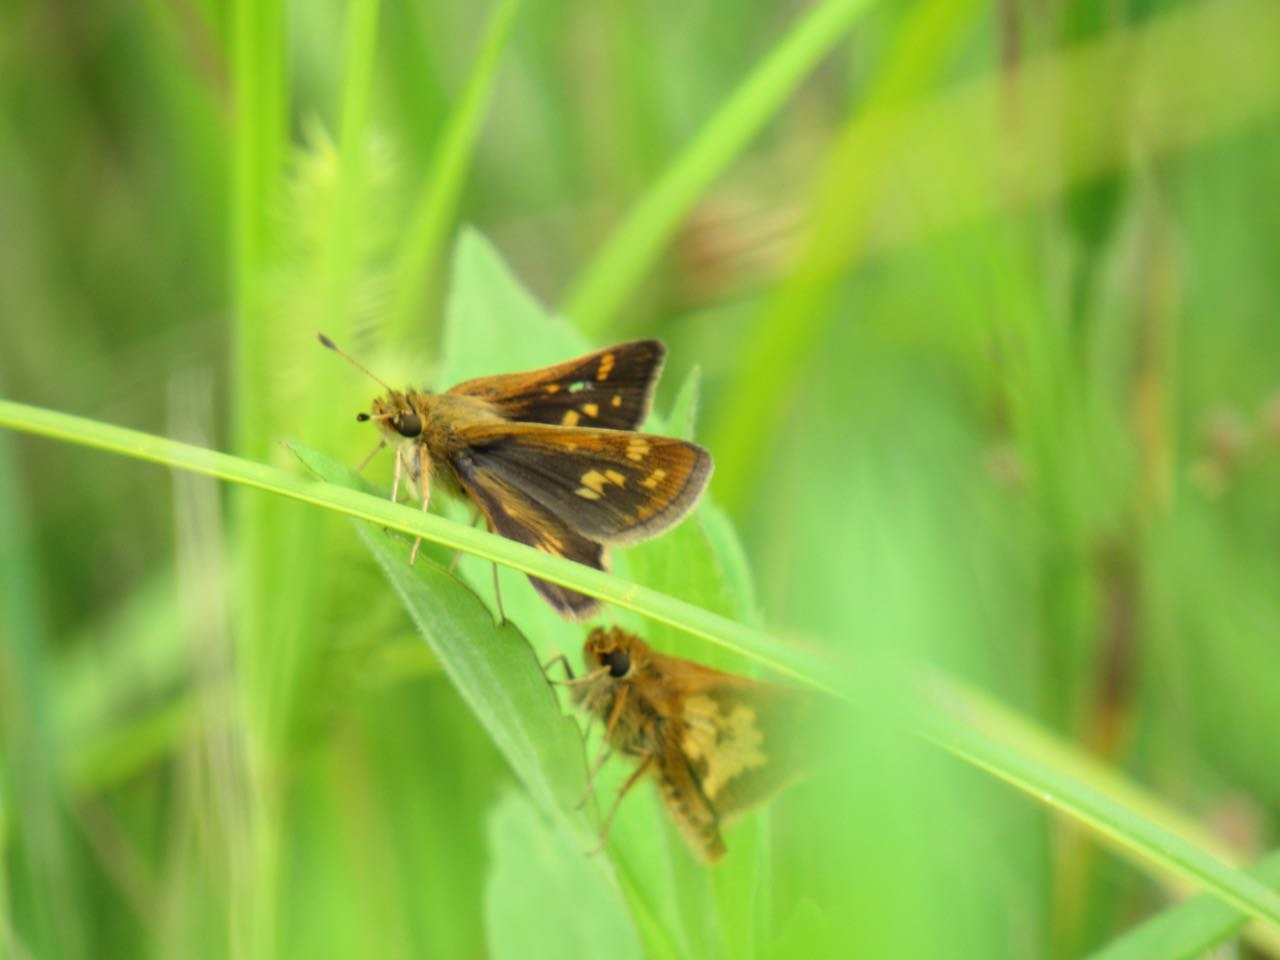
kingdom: Animalia
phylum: Arthropoda
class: Insecta
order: Lepidoptera
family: Hesperiidae
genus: Polites
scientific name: Polites coras
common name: Peck's Skipper
